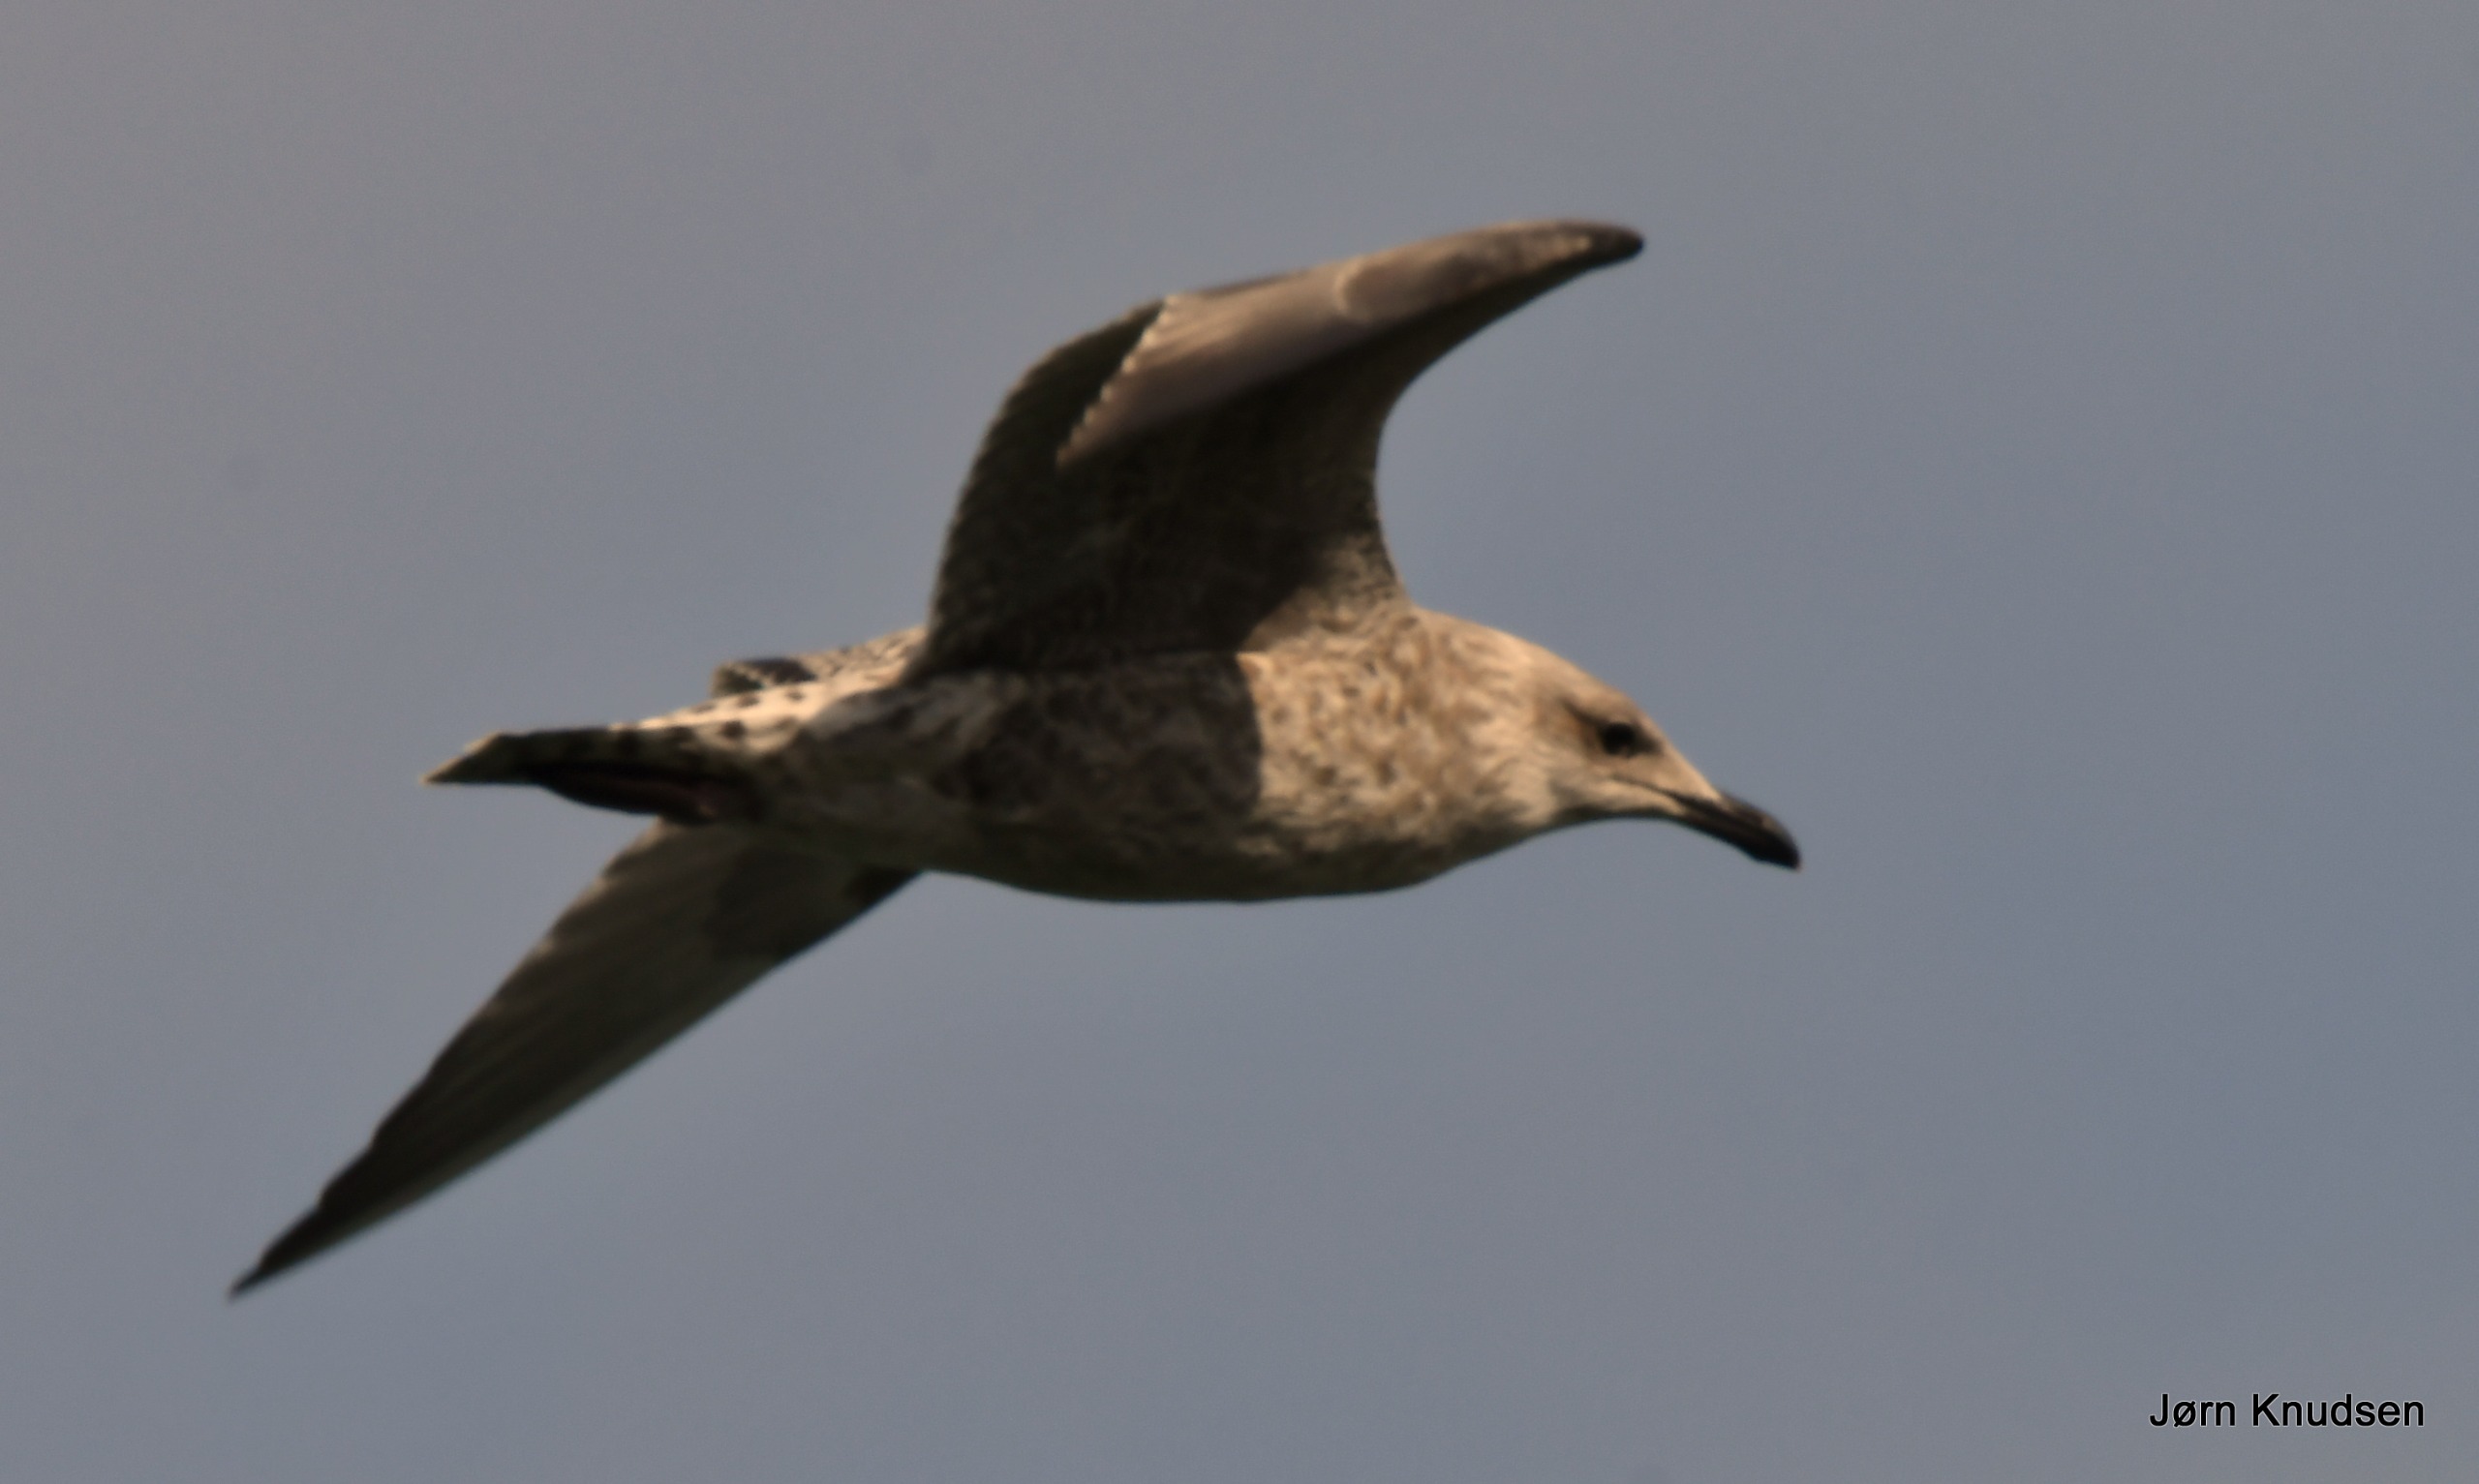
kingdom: Animalia
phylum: Chordata
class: Aves
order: Charadriiformes
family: Laridae
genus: Larus
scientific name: Larus argentatus
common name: Sølvmåge
